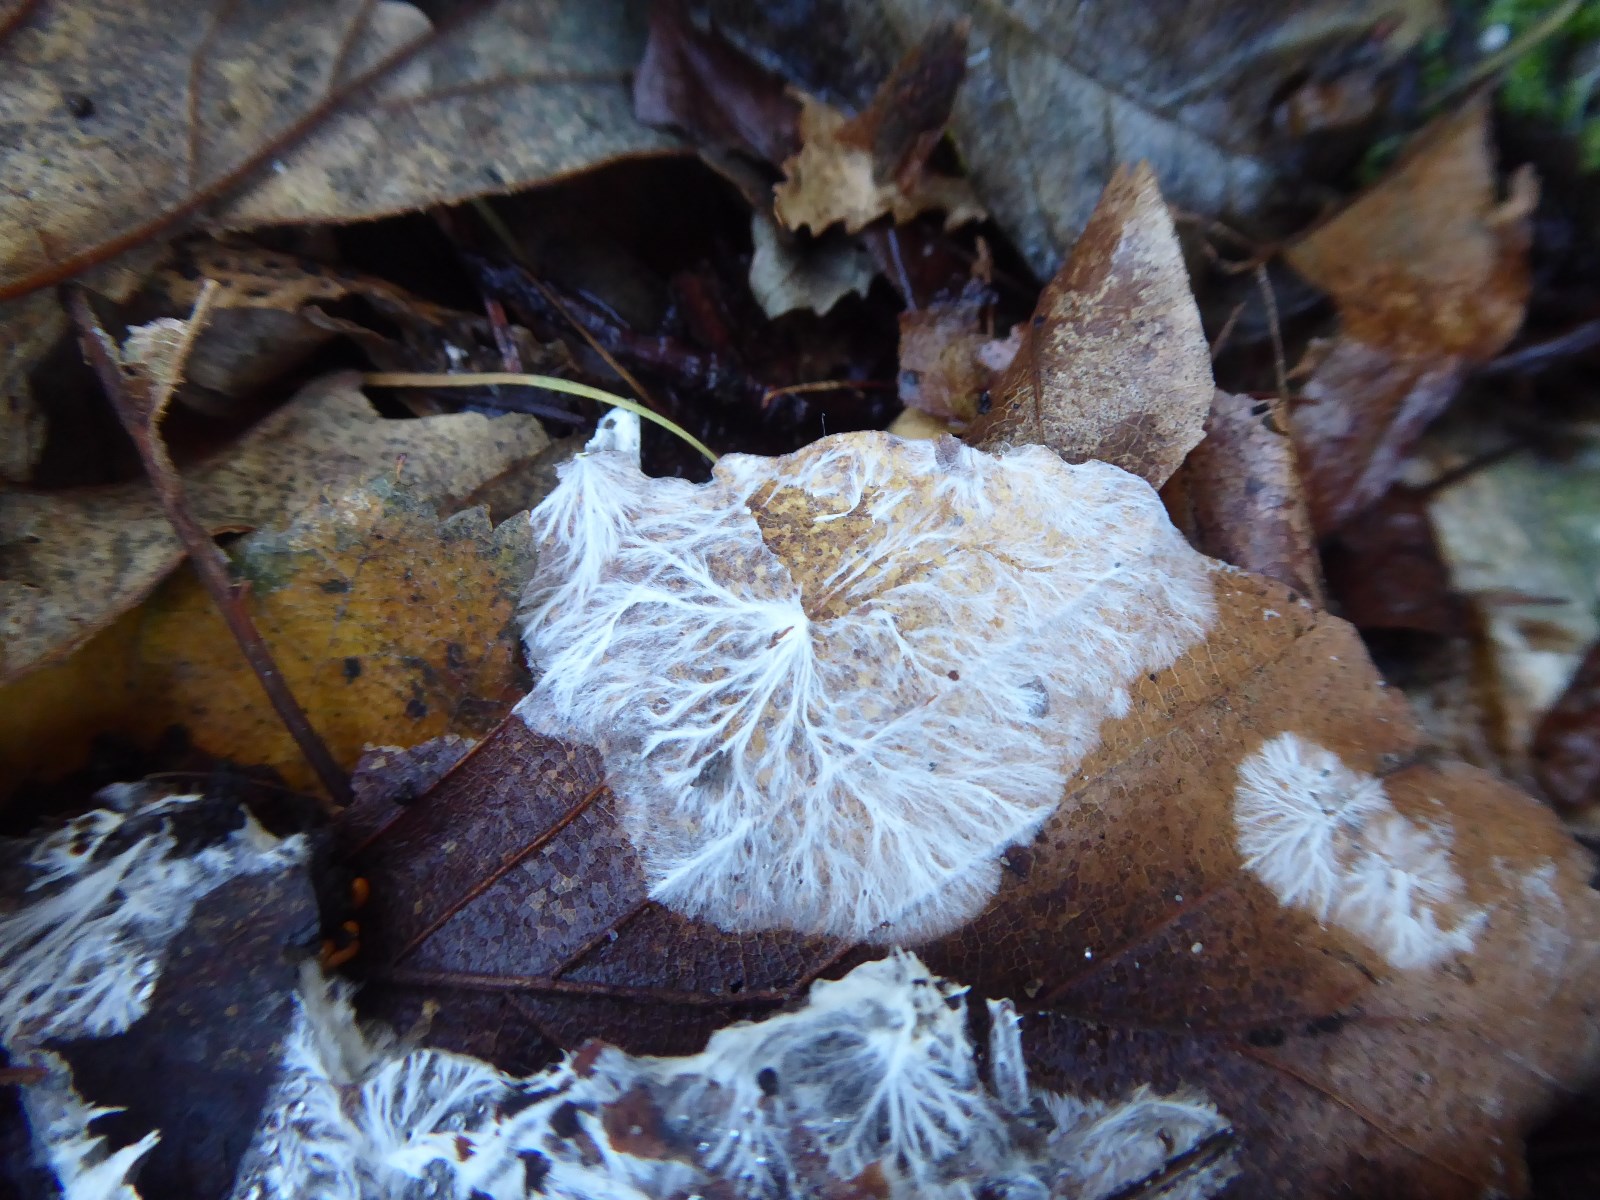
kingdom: Fungi
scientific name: Fungi
